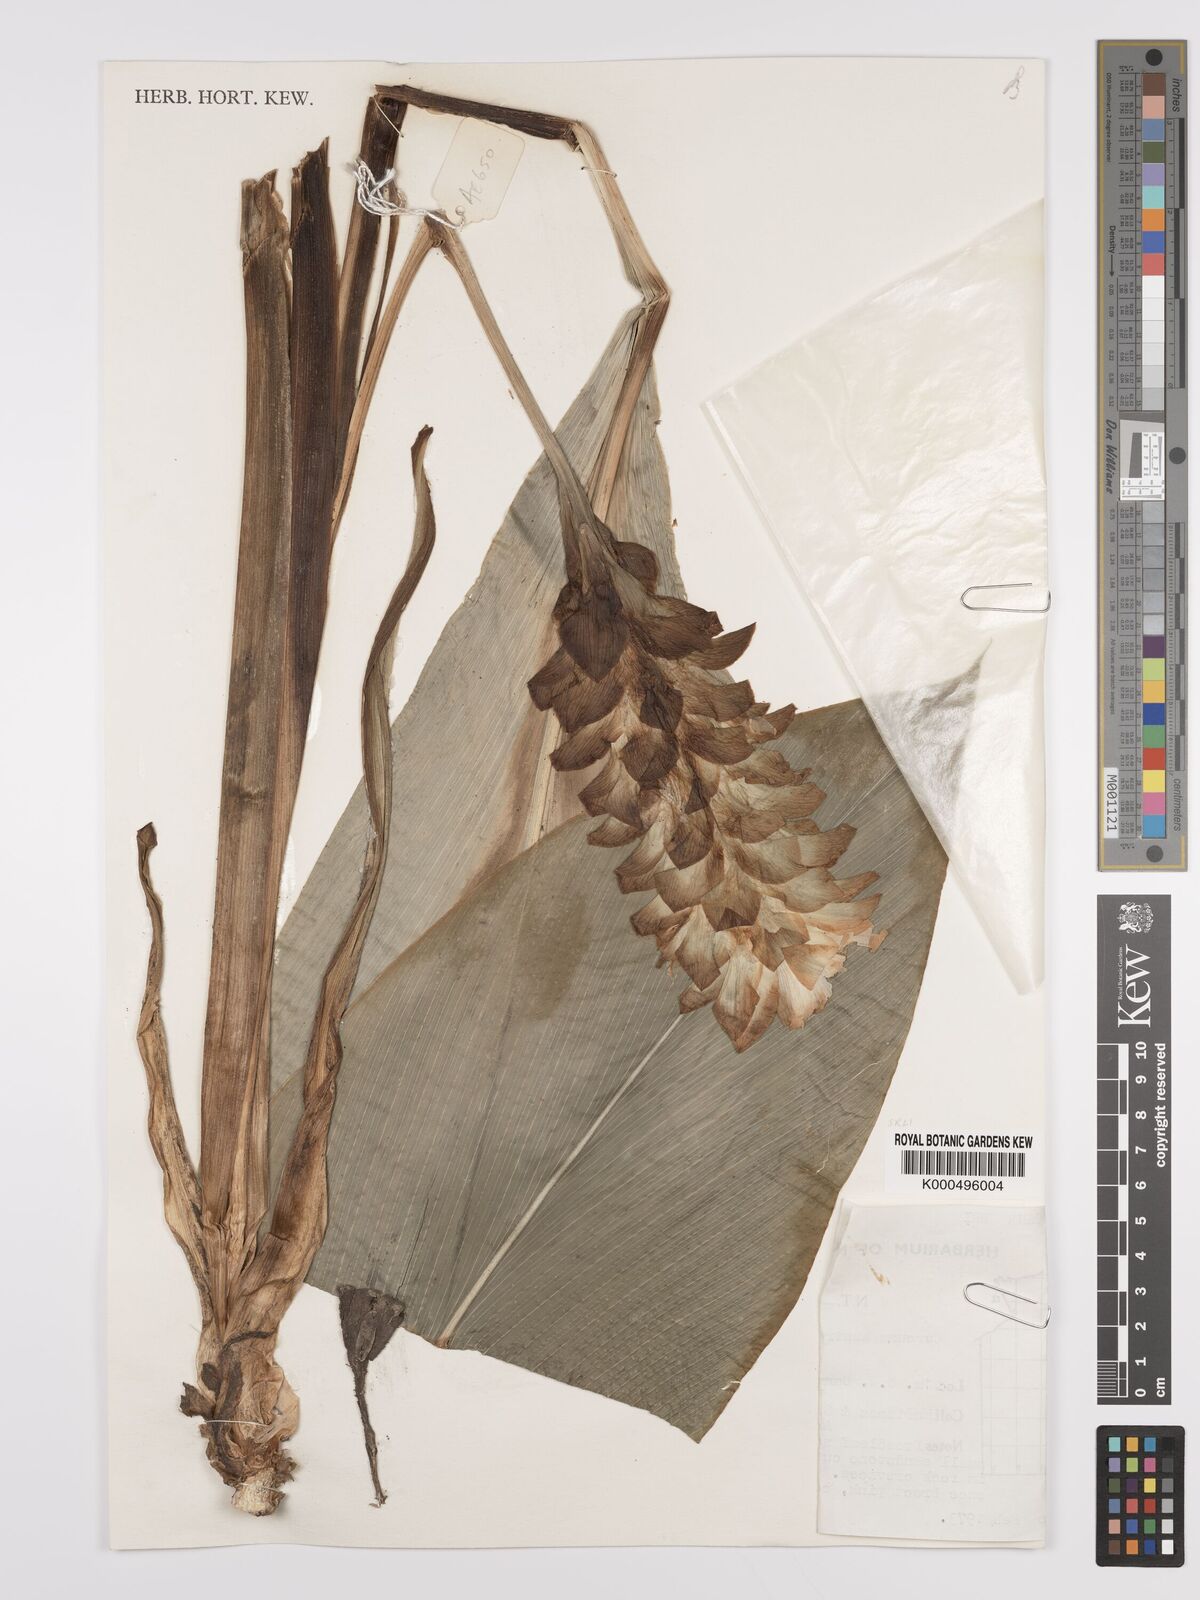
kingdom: Plantae
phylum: Tracheophyta
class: Liliopsida
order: Zingiberales
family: Zingiberaceae
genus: Curcuma
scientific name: Curcuma australasica
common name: Australian wild turmeric
